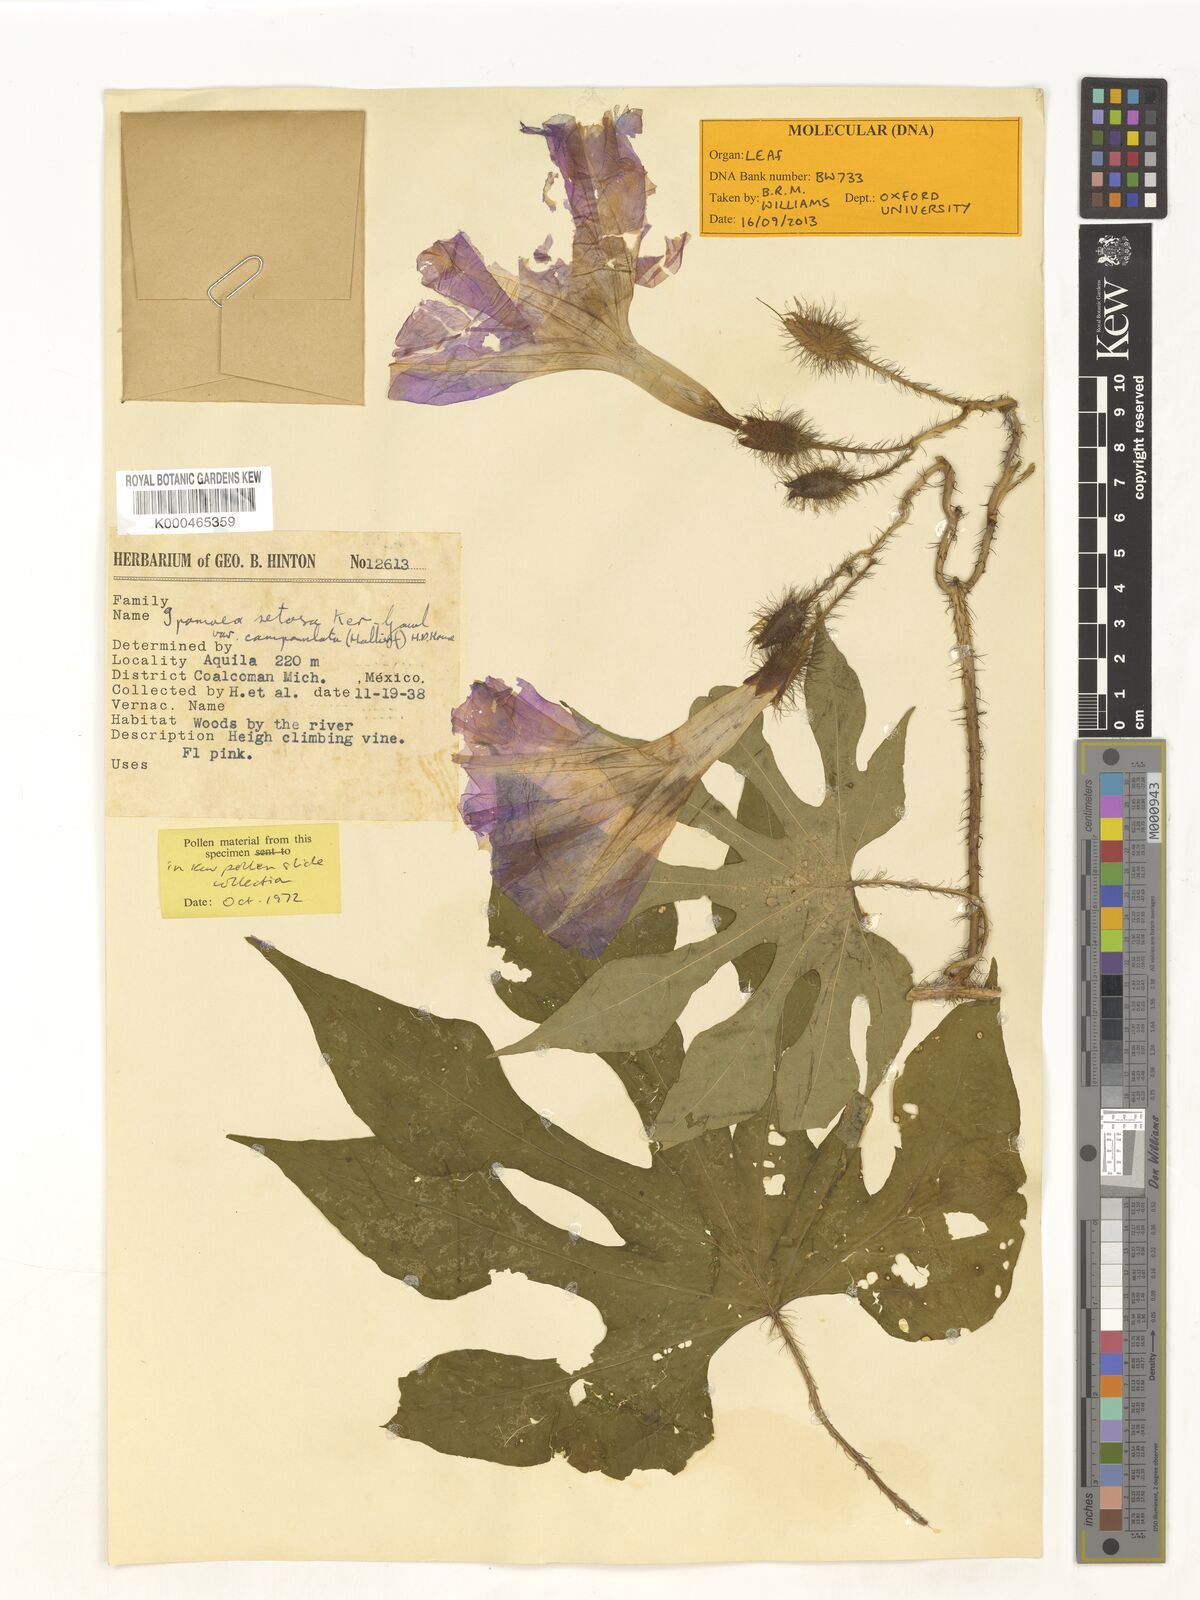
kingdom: Plantae
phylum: Tracheophyta
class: Magnoliopsida
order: Solanales
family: Convolvulaceae
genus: Ipomoea
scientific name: Ipomoea setosa
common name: Brazilian morning-glory
